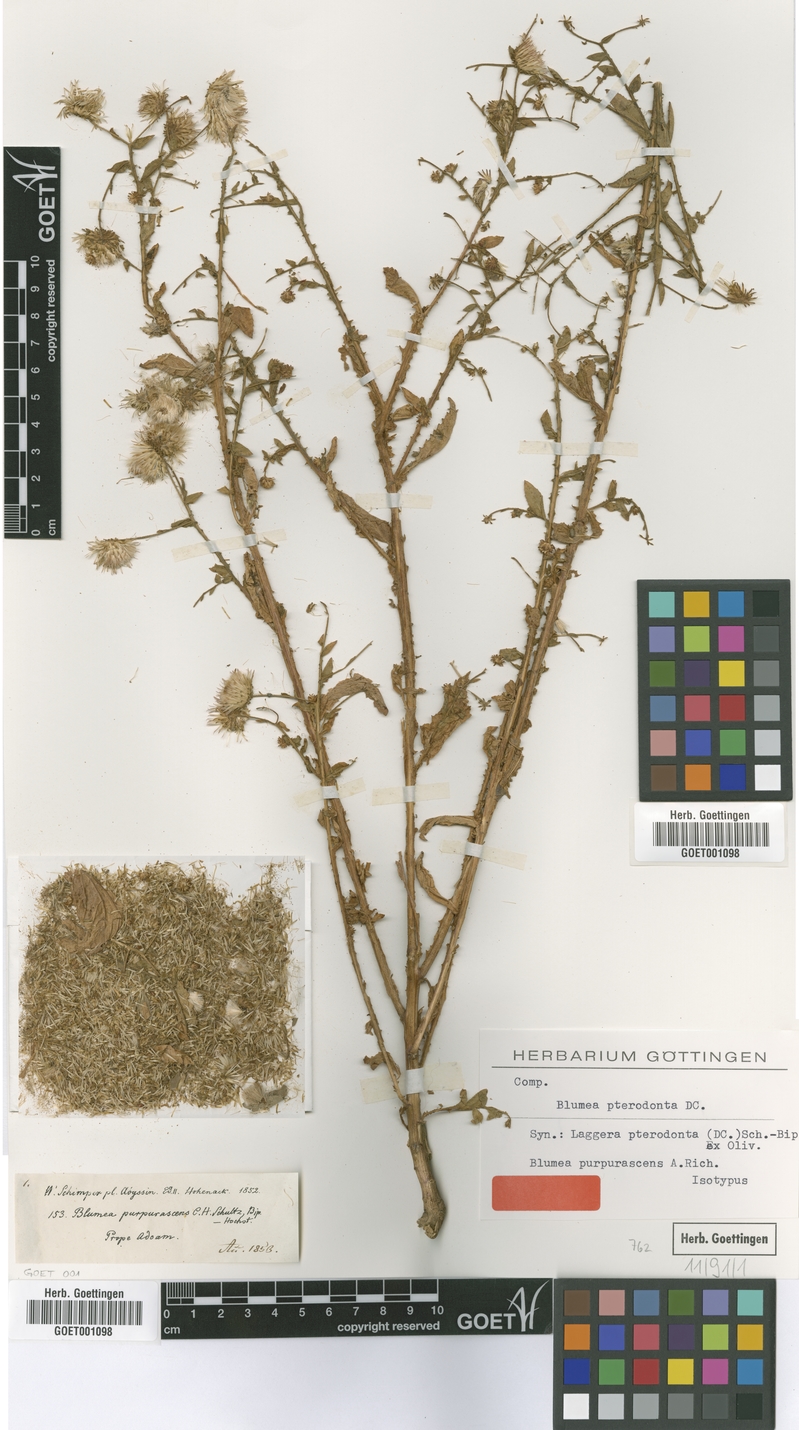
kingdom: Plantae
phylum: Tracheophyta
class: Magnoliopsida
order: Asterales
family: Asteraceae
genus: Laggera
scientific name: Laggera crispata
